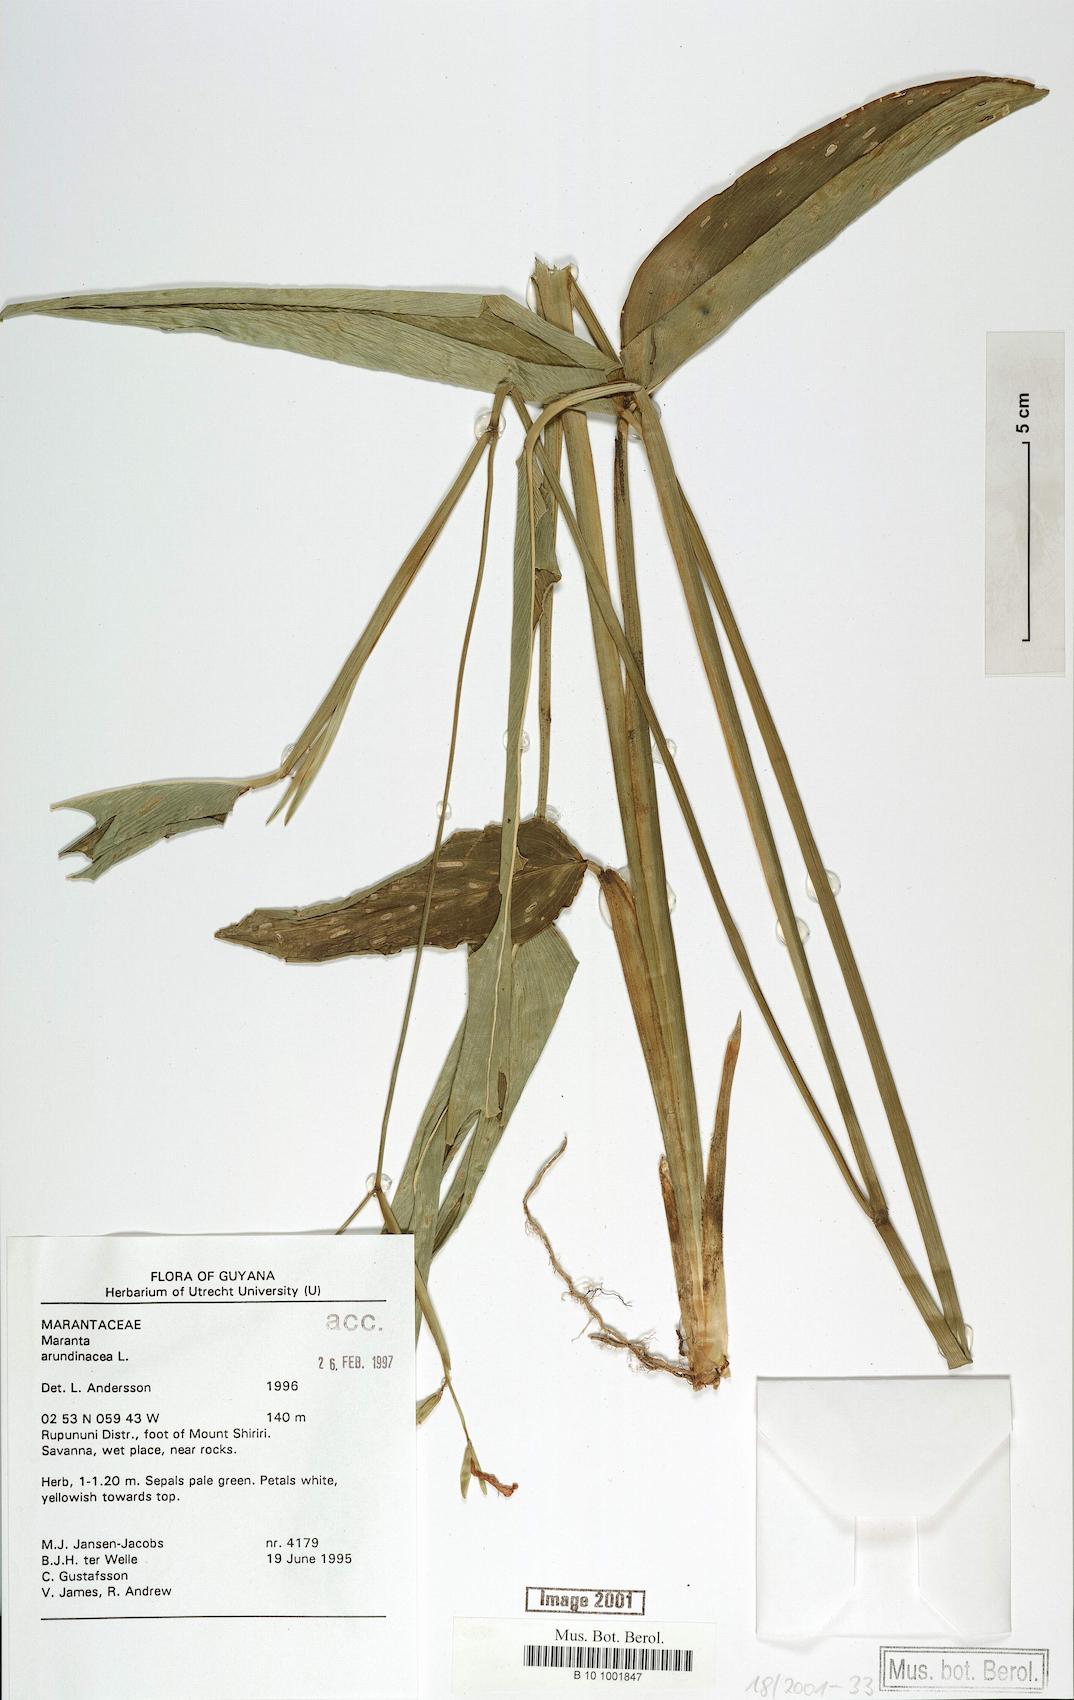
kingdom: Plantae
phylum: Tracheophyta
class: Liliopsida
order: Zingiberales
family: Marantaceae
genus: Maranta
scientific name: Maranta arundinacea
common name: Arrowroot
